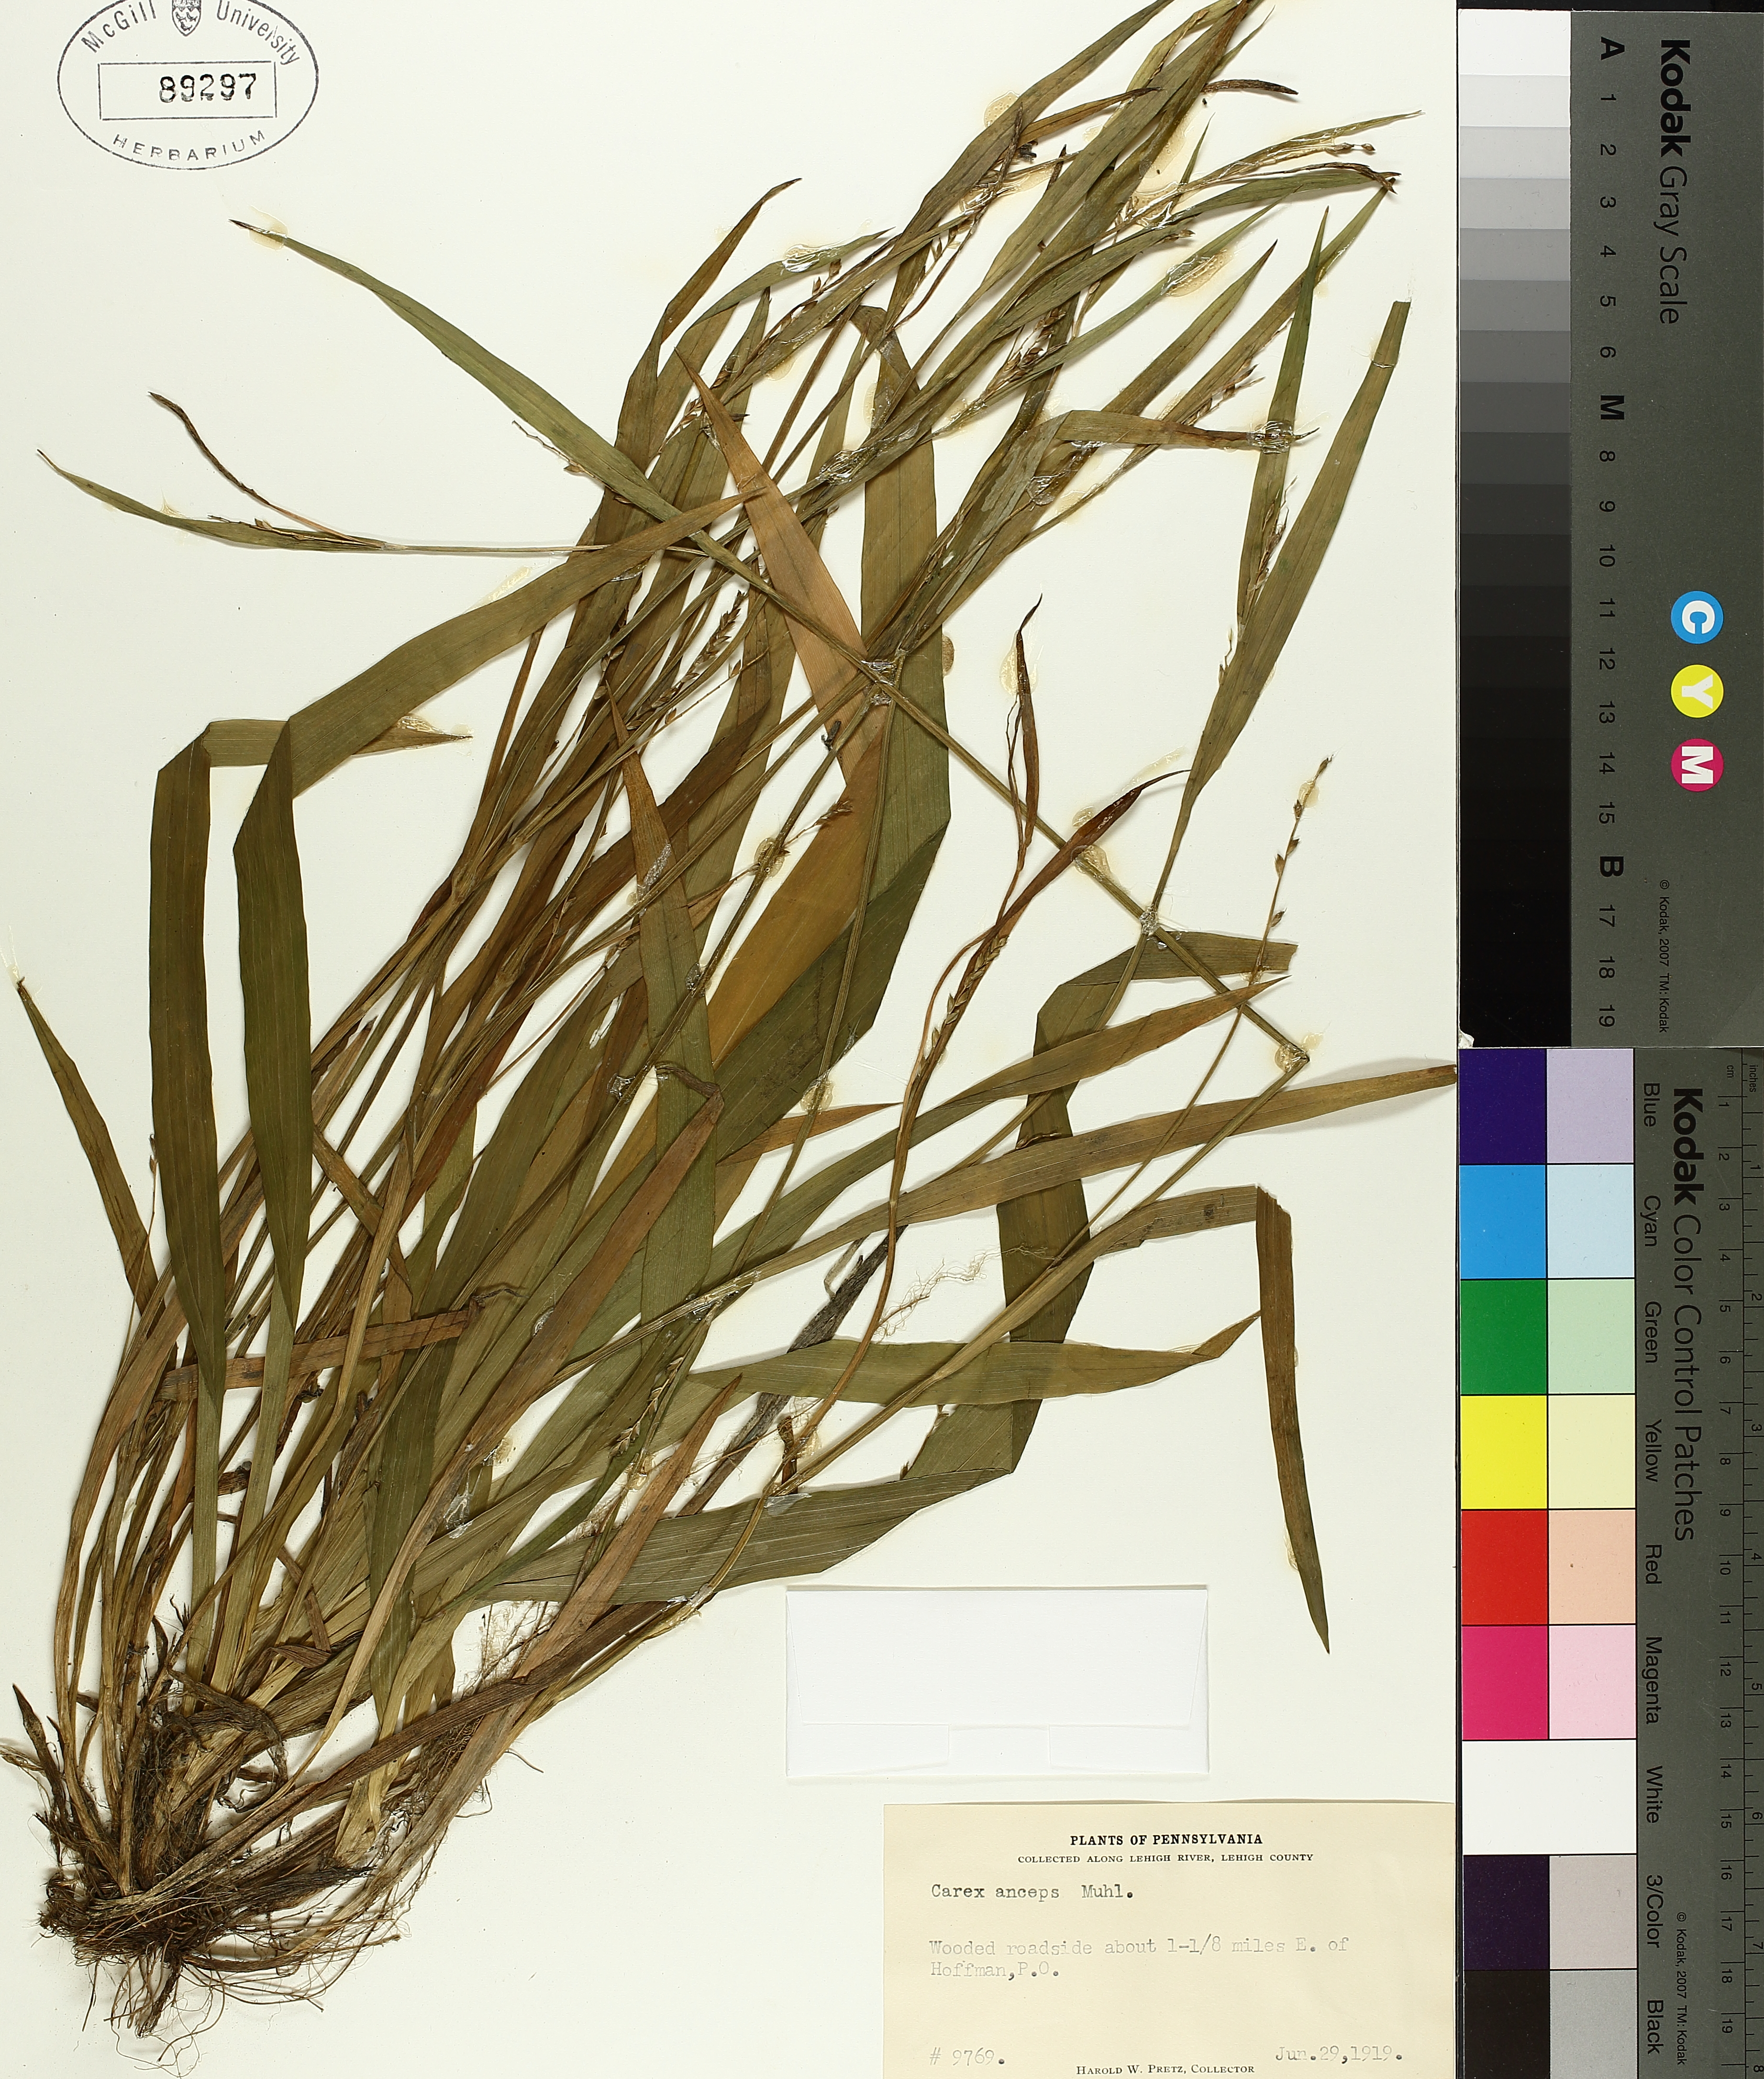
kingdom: Plantae
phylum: Tracheophyta
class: Liliopsida
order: Poales
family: Cyperaceae
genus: Carex
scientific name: Carex laxiflora
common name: Beech wood sedge
